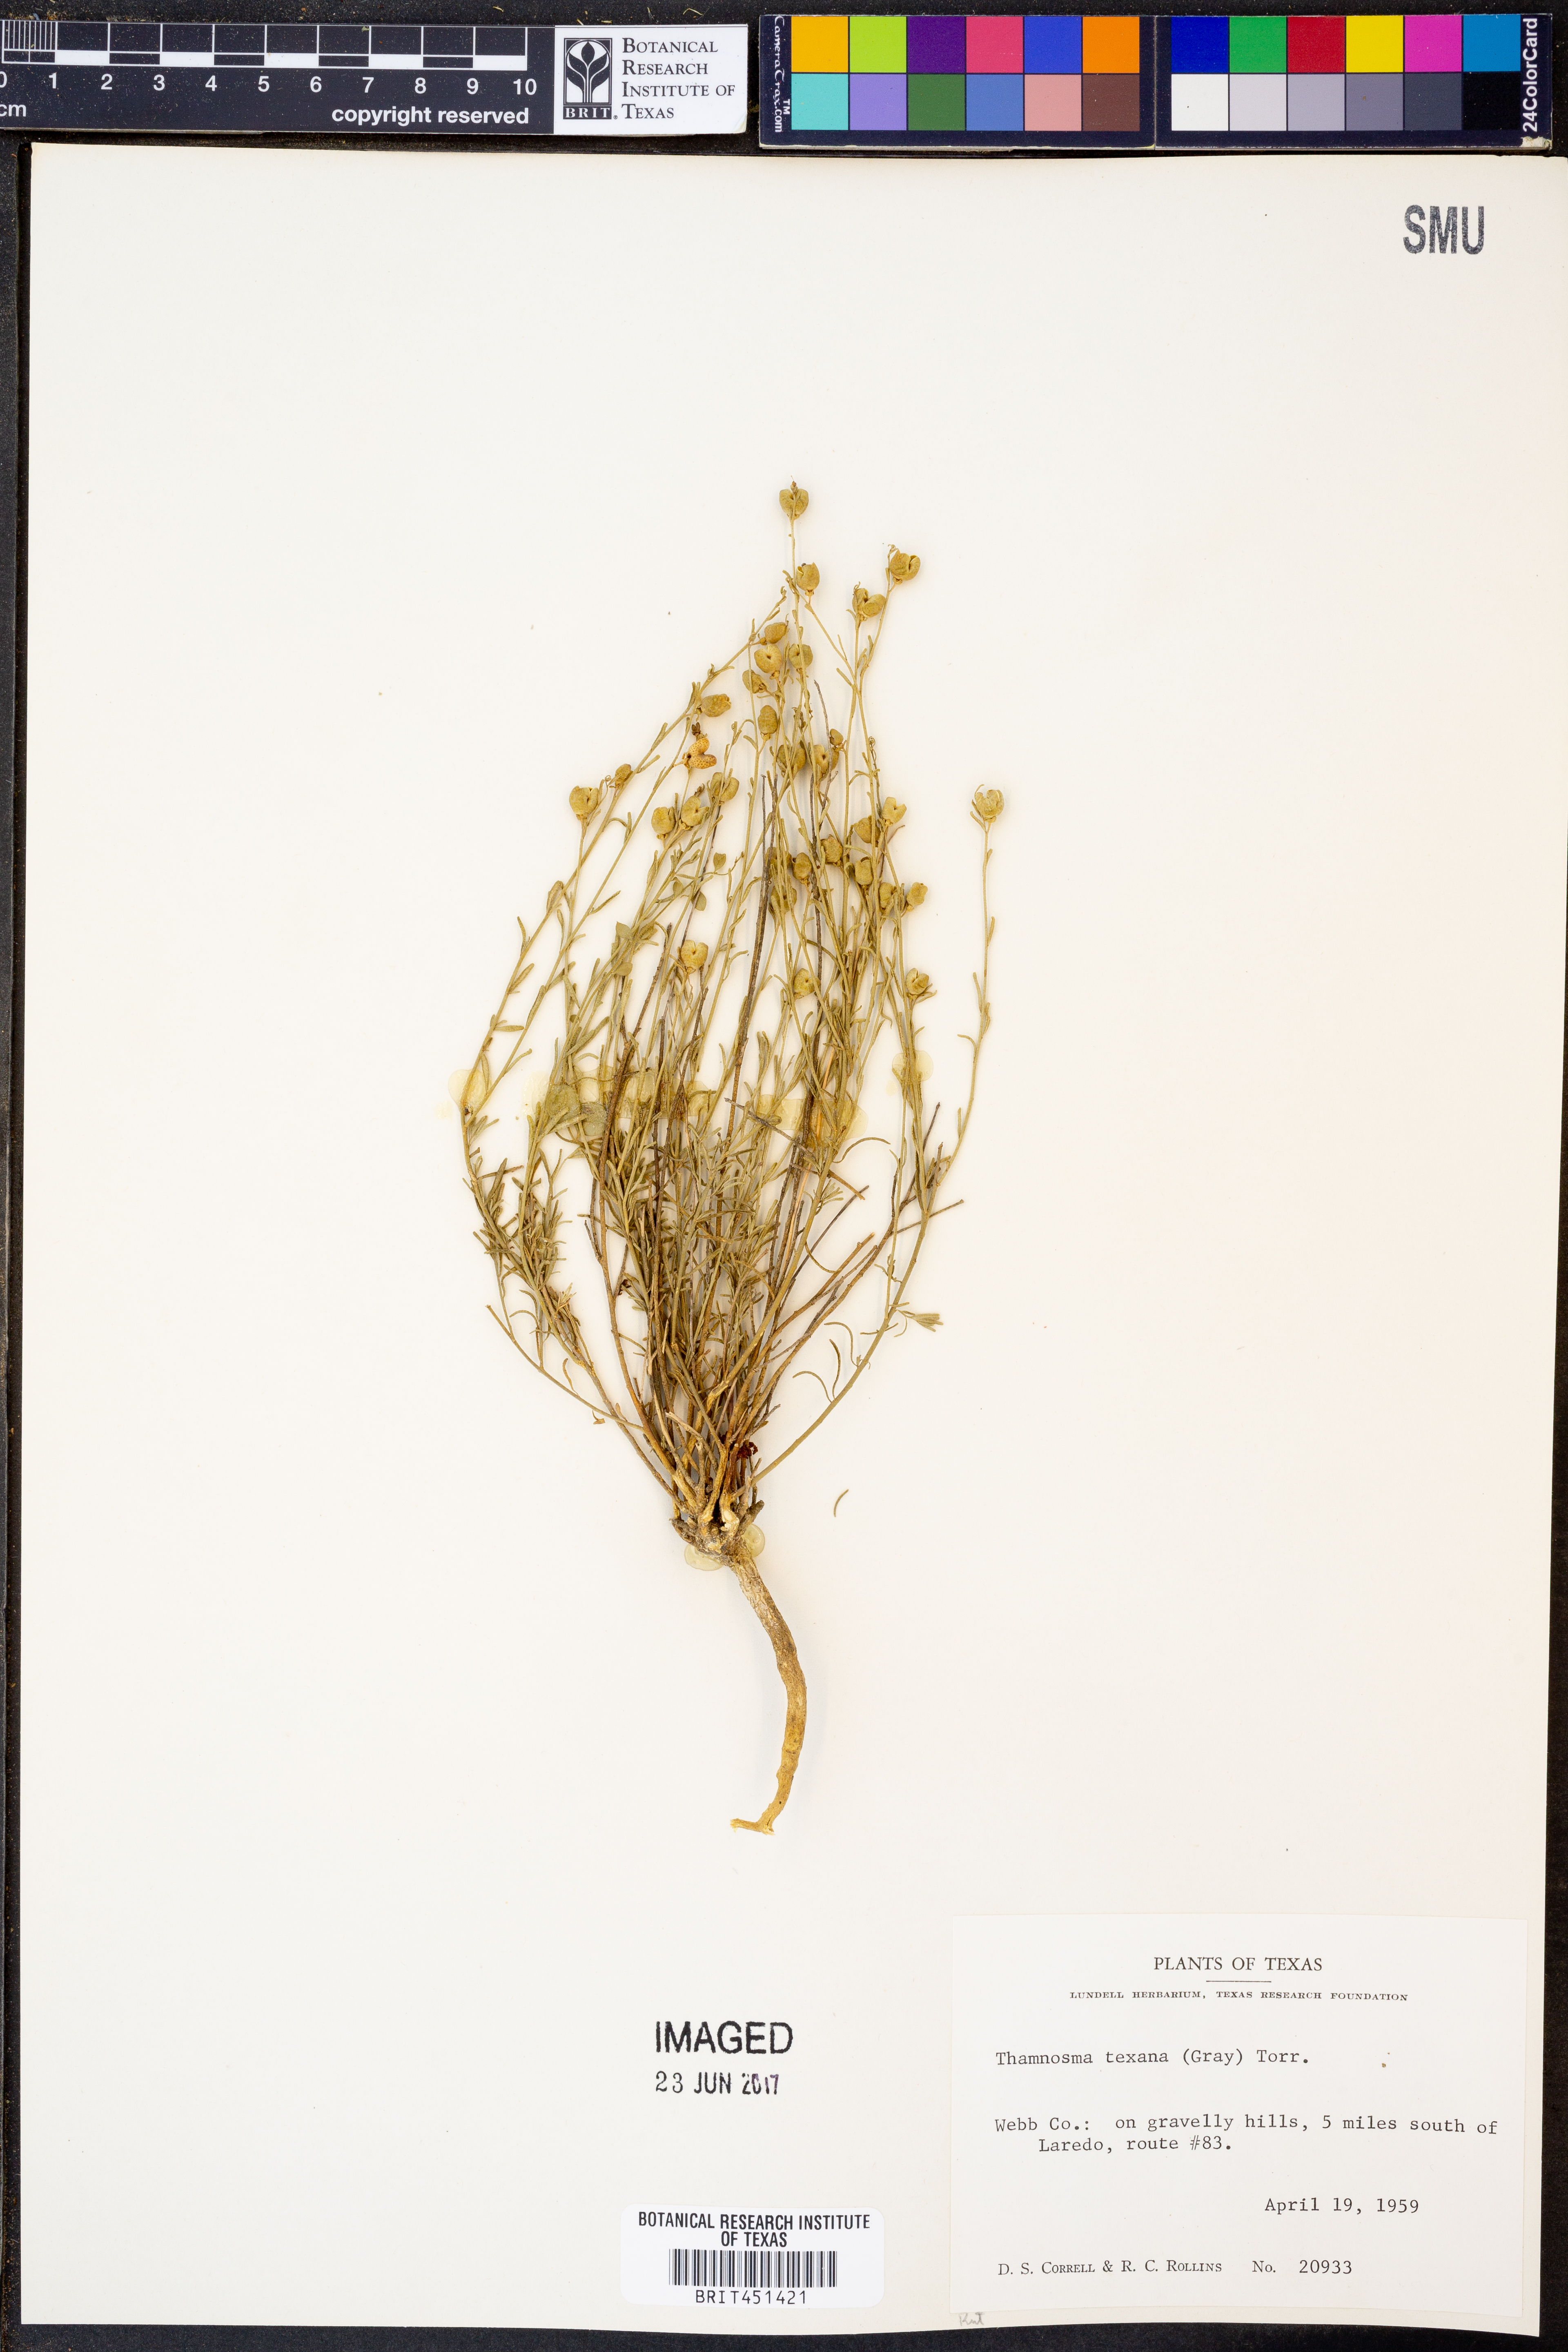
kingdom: Plantae
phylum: Tracheophyta
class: Magnoliopsida
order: Sapindales
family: Rutaceae
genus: Thamnosma
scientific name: Thamnosma texana
